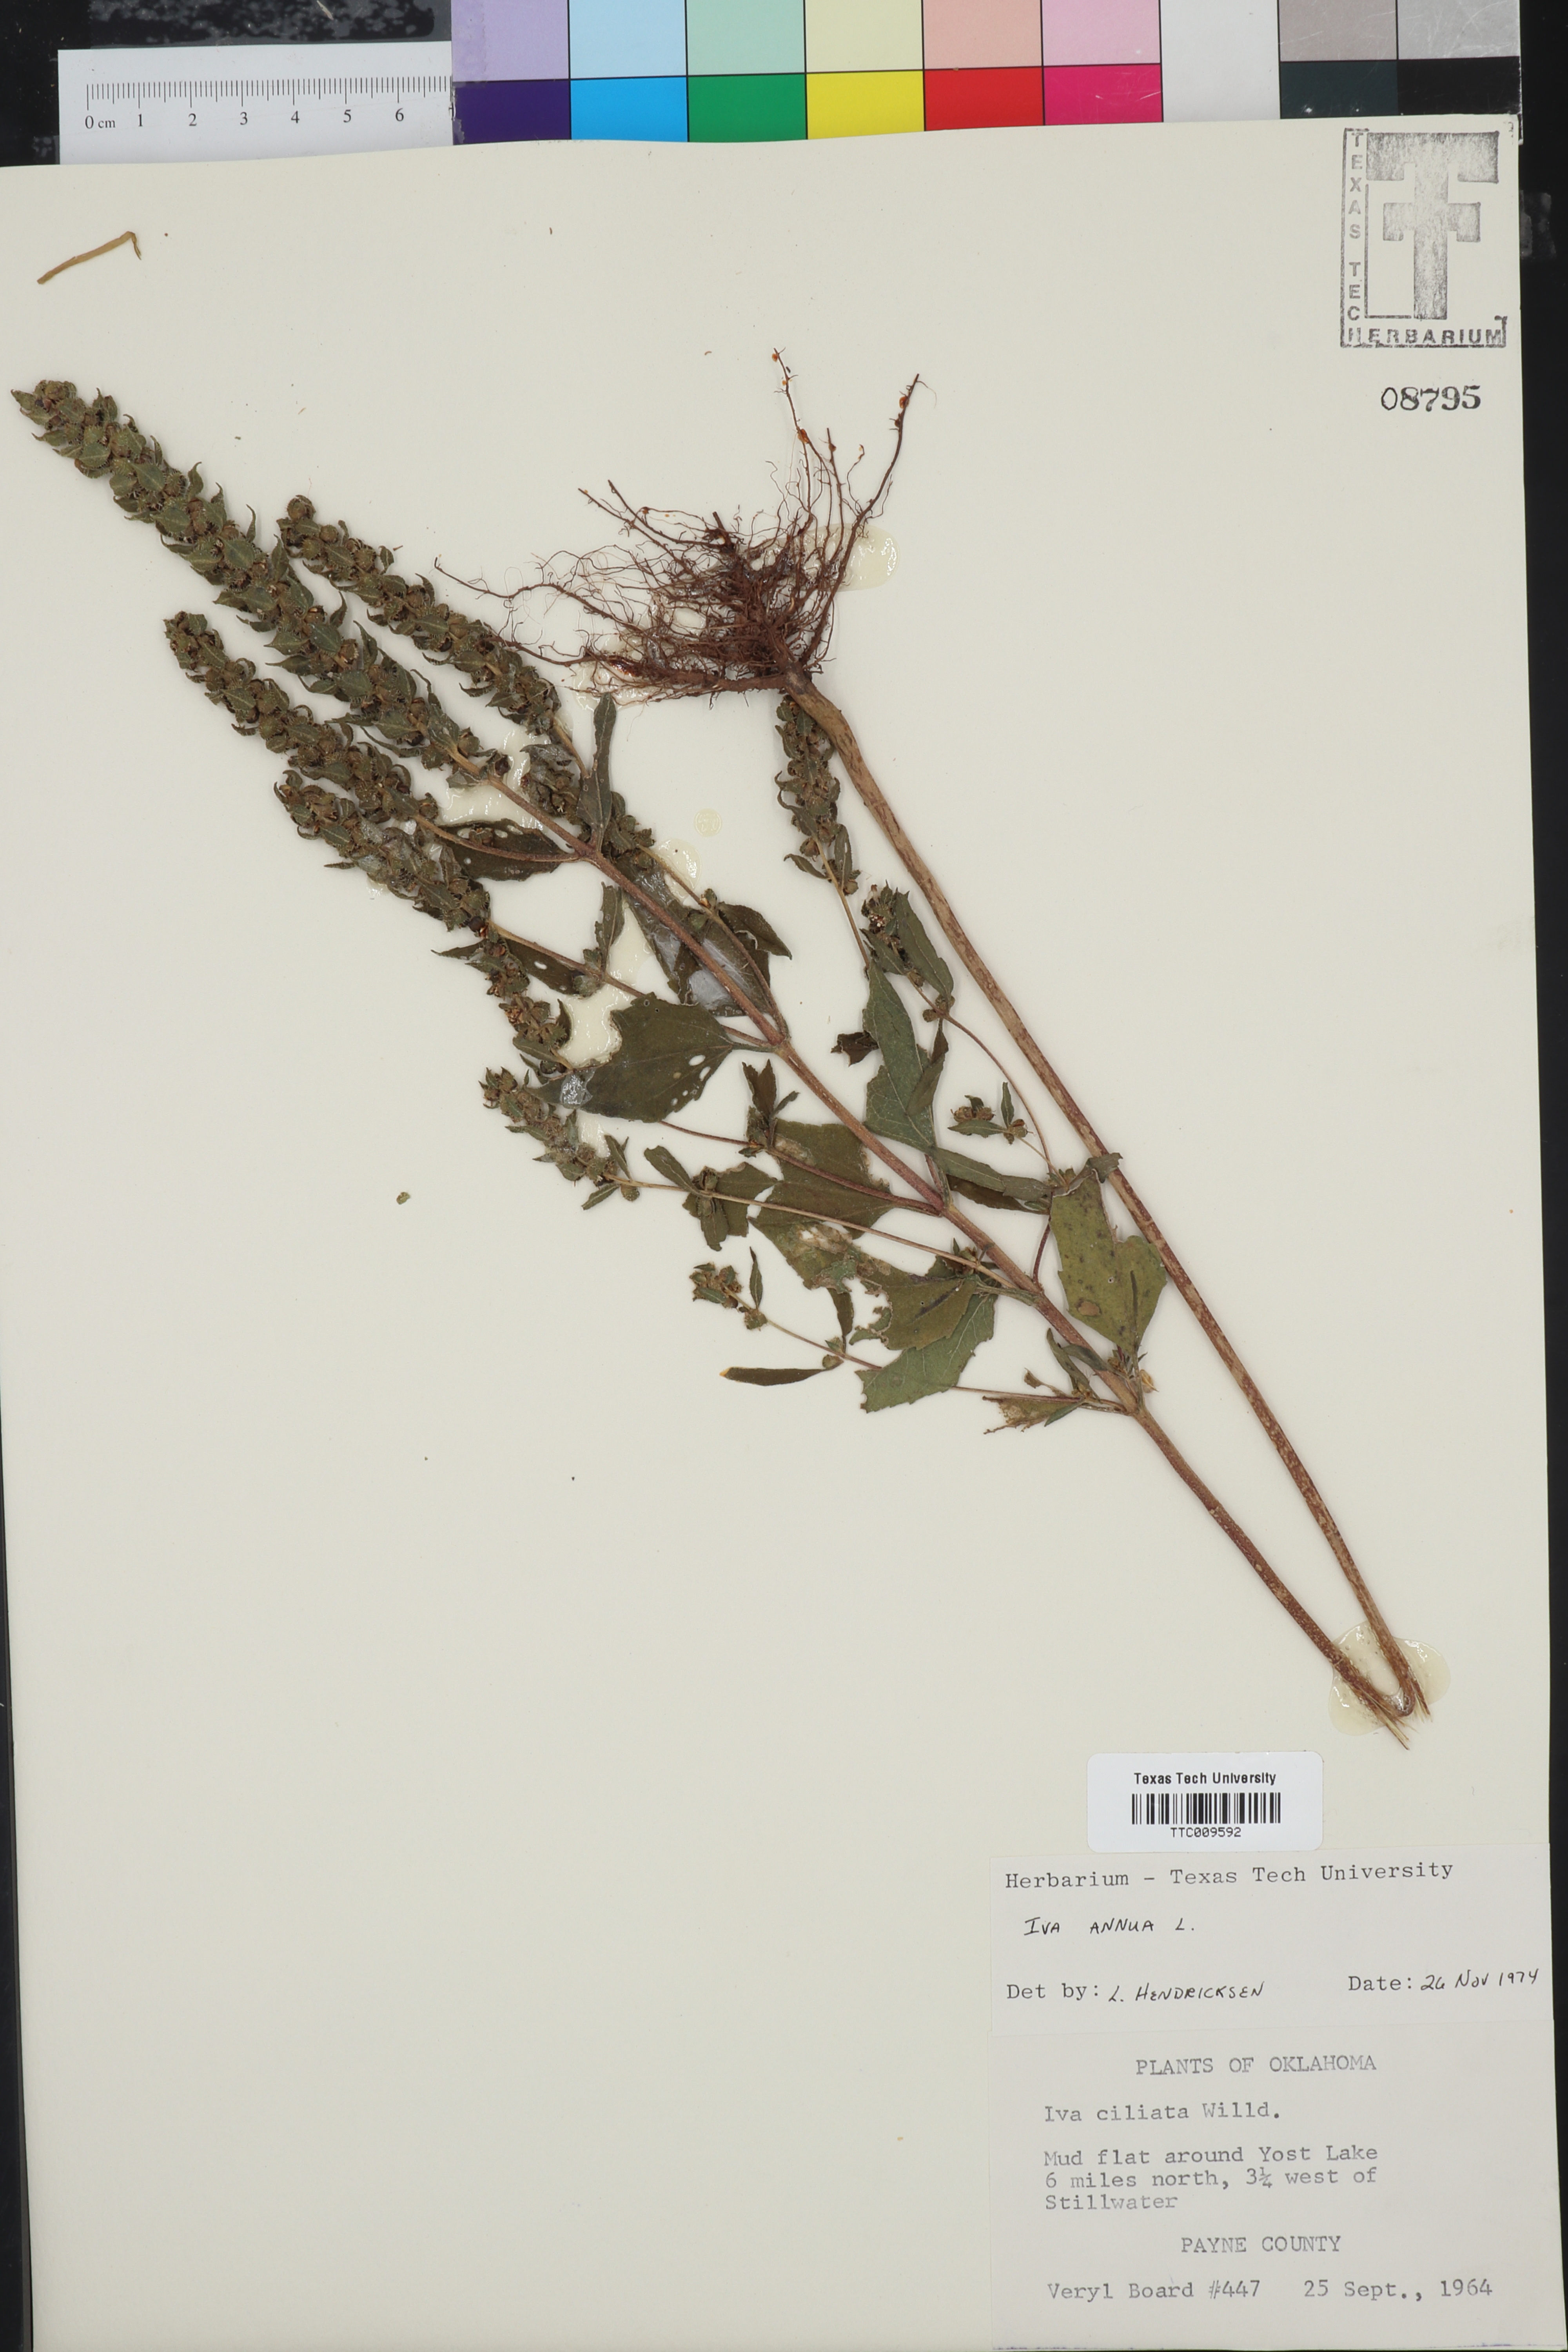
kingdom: Plantae
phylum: Tracheophyta
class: Magnoliopsida
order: Asterales
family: Asteraceae
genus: Iva
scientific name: Iva annua
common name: Marsh-elder
